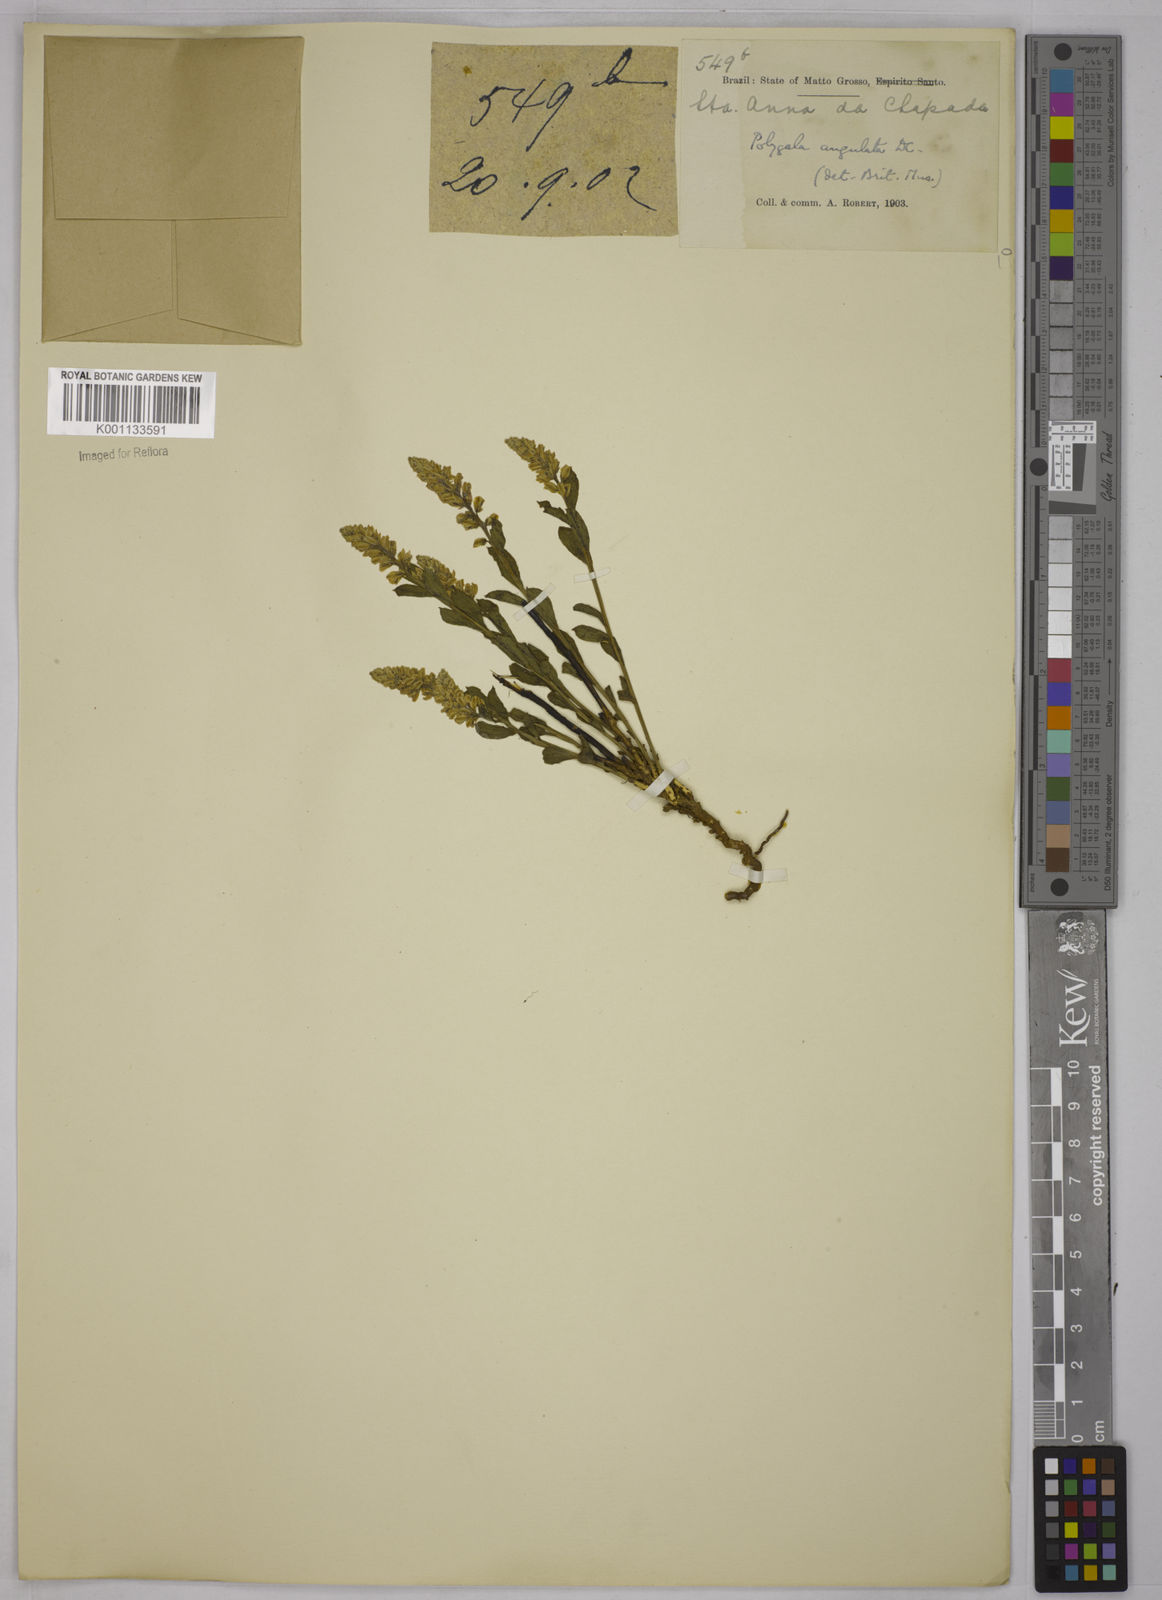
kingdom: Plantae
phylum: Tracheophyta
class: Magnoliopsida
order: Fabales
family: Polygalaceae
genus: Polygala
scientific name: Polygala poaya
